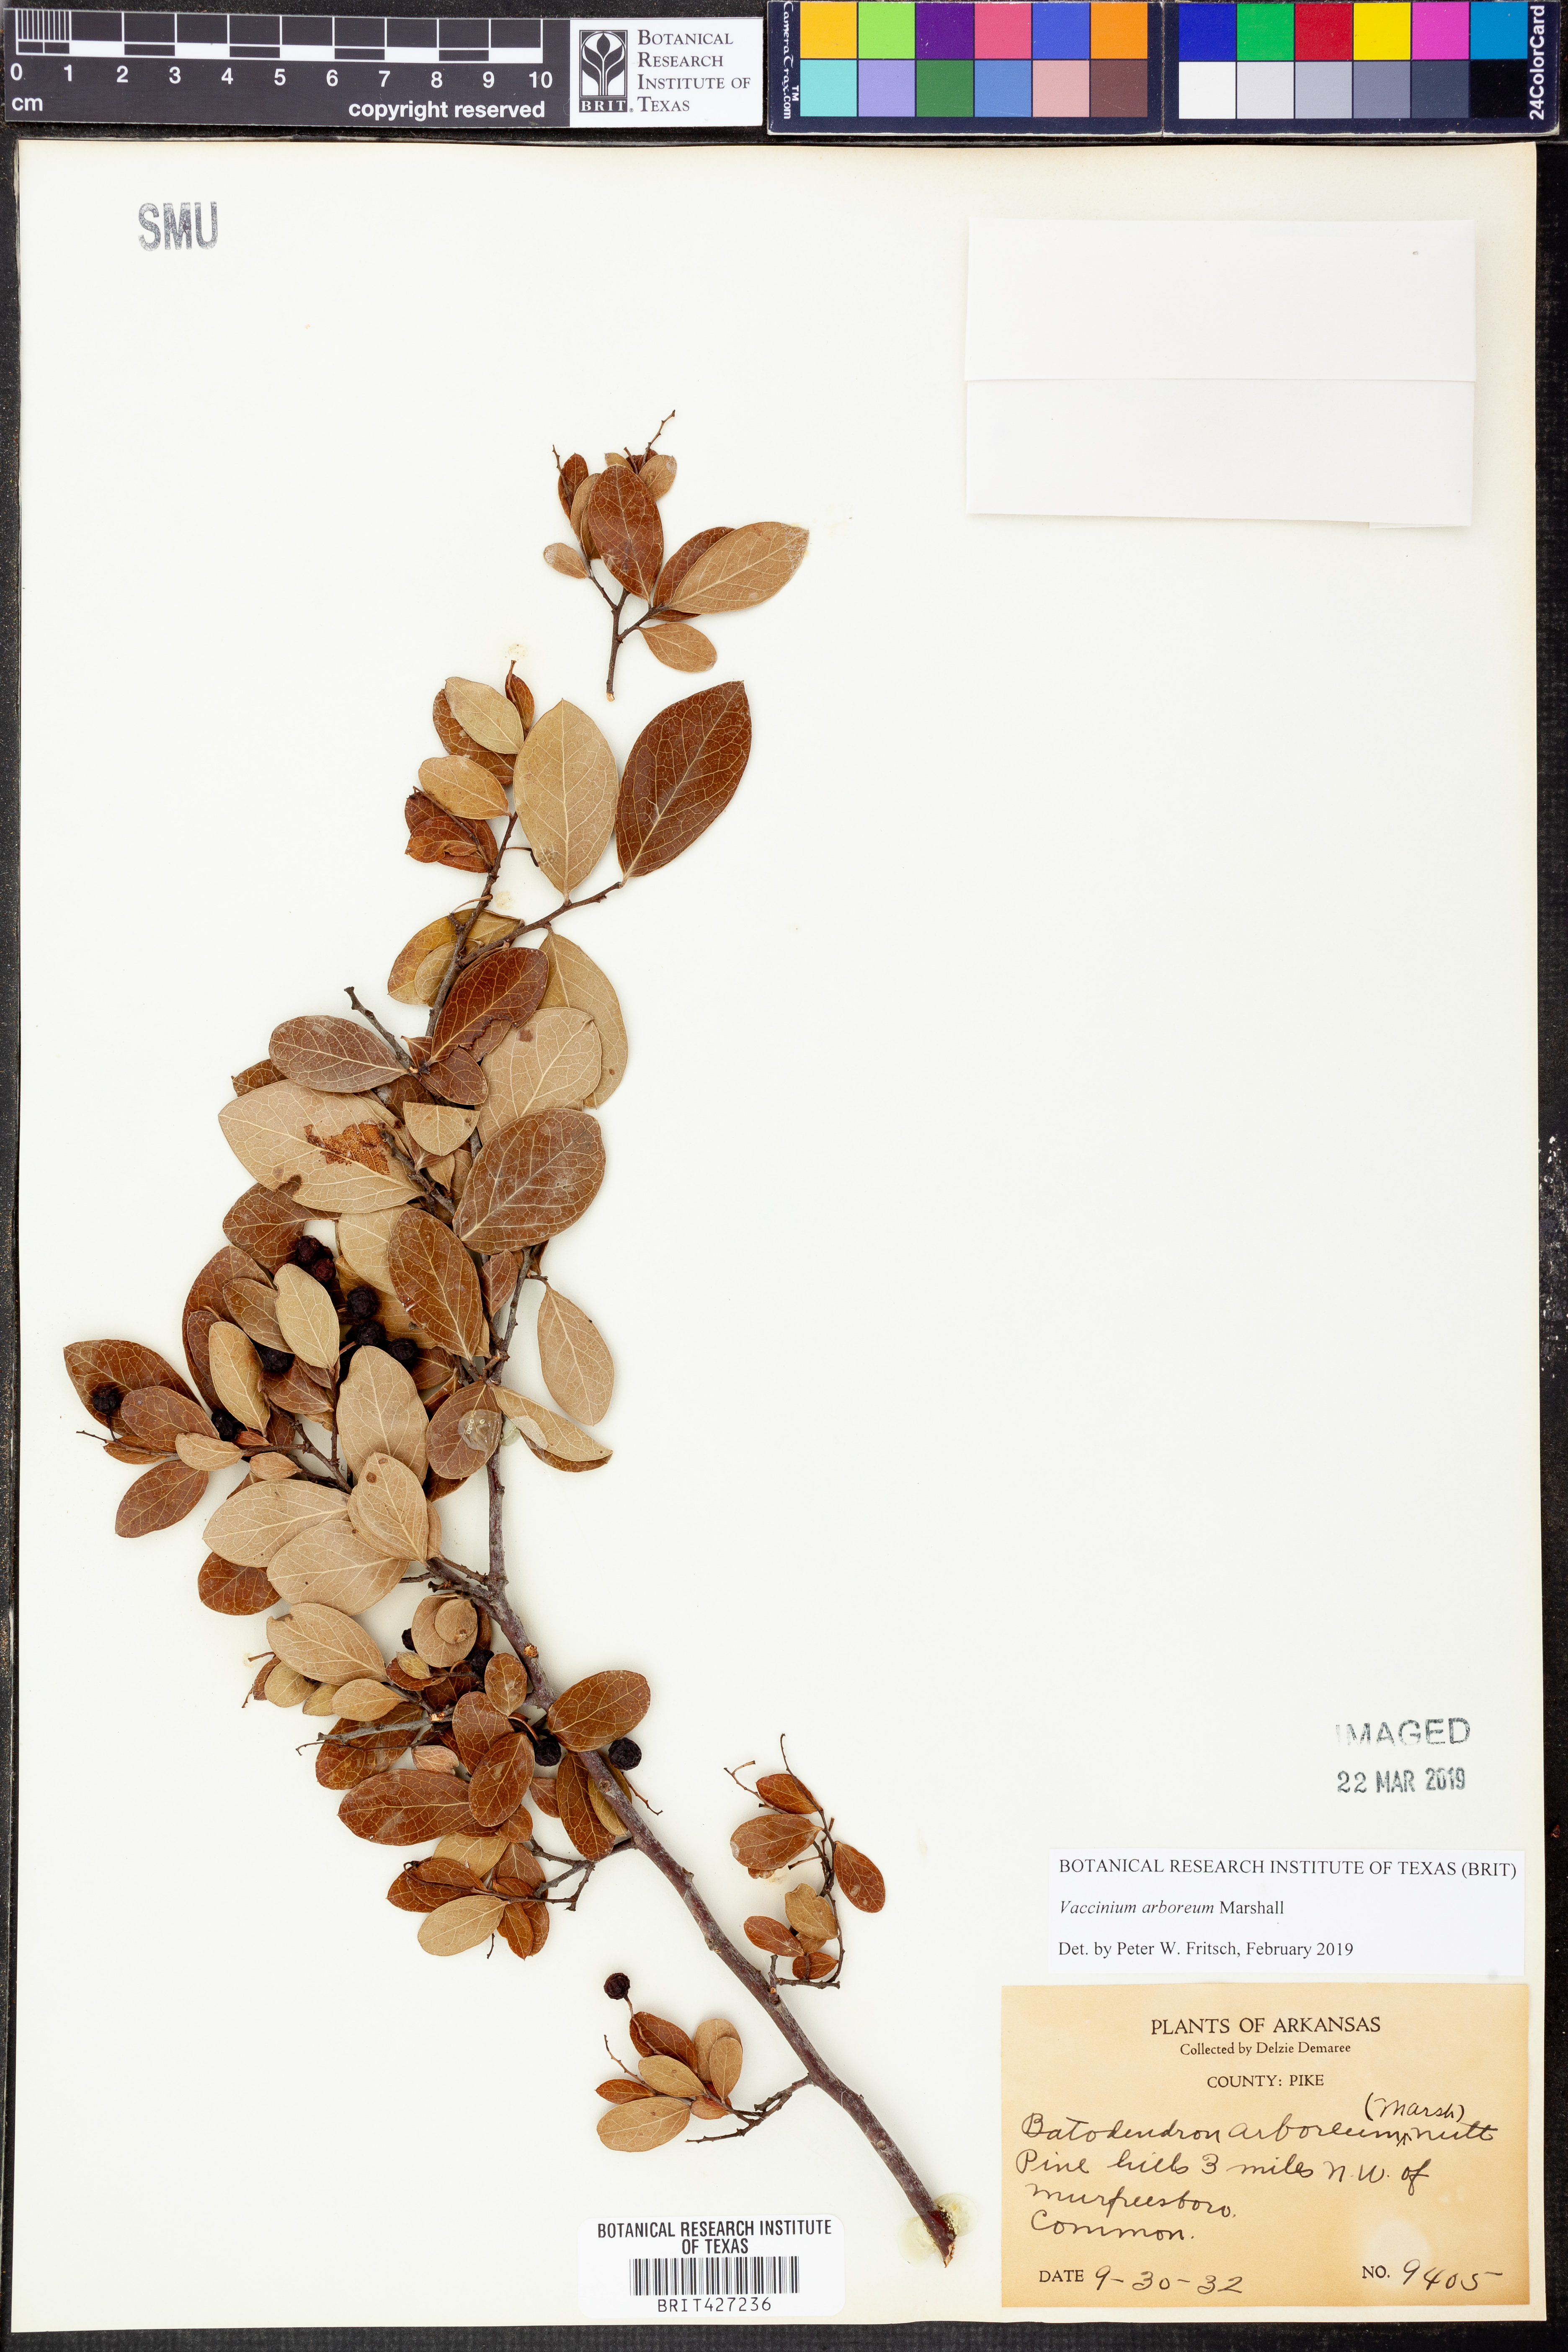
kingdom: Plantae
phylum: Tracheophyta
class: Magnoliopsida
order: Ericales
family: Ericaceae
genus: Vaccinium
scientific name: Vaccinium arboreum
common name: Farkleberry
